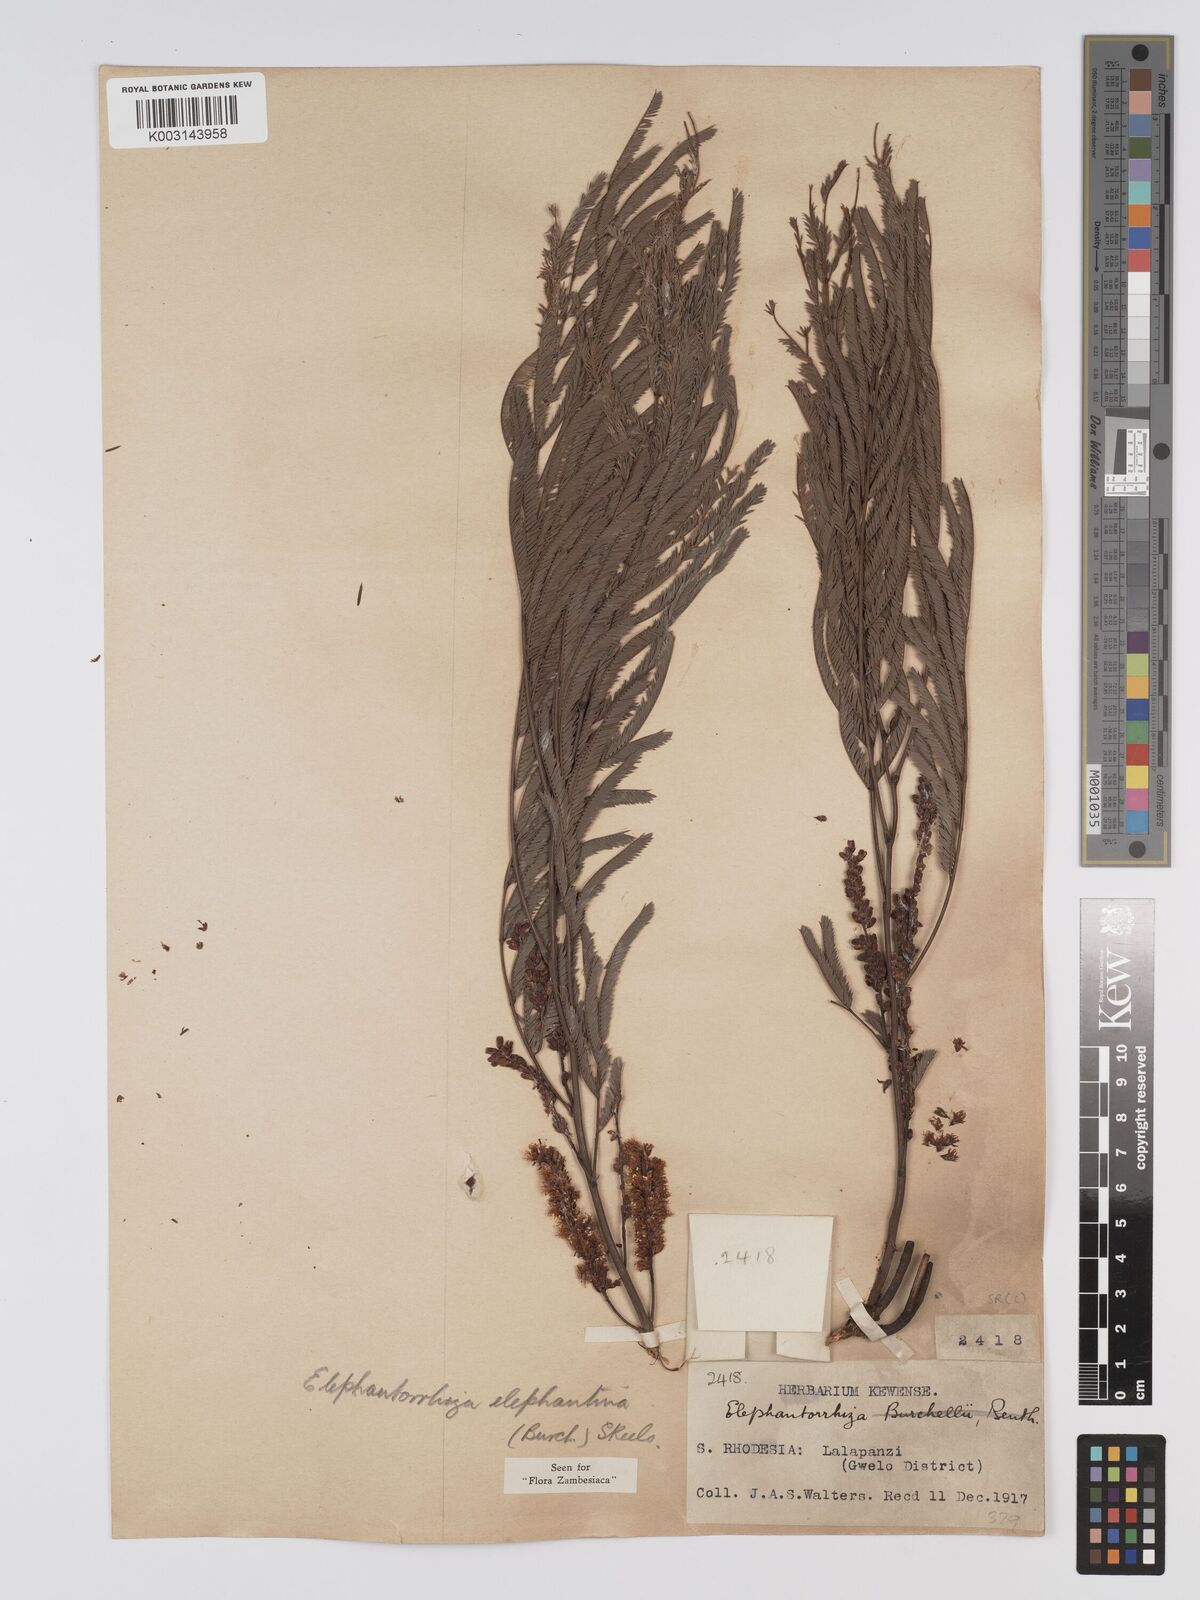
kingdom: Plantae
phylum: Tracheophyta
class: Magnoliopsida
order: Fabales
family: Fabaceae
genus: Elephantorrhiza
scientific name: Elephantorrhiza elephantina
